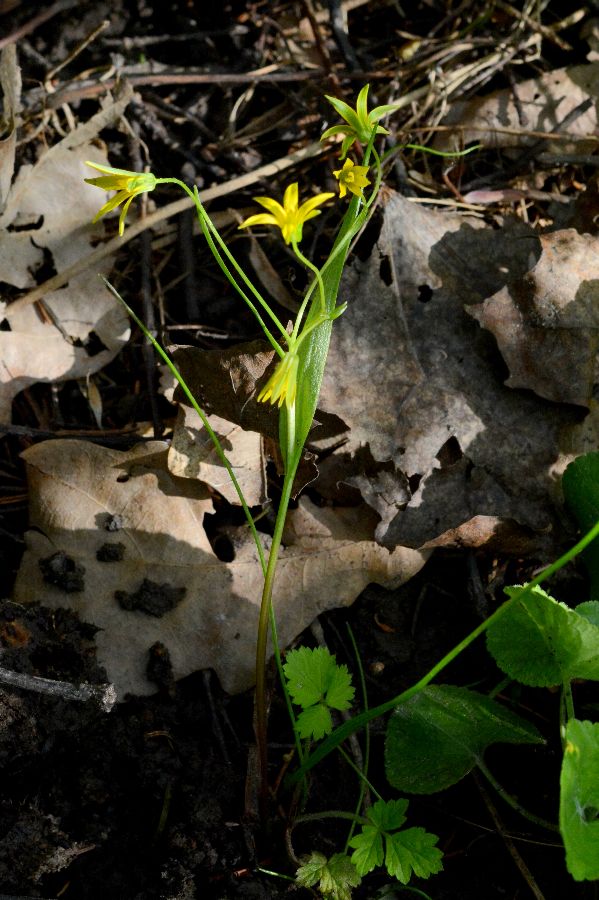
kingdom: Plantae
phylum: Tracheophyta
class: Liliopsida
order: Liliales
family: Liliaceae
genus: Gagea
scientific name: Gagea granulosa
